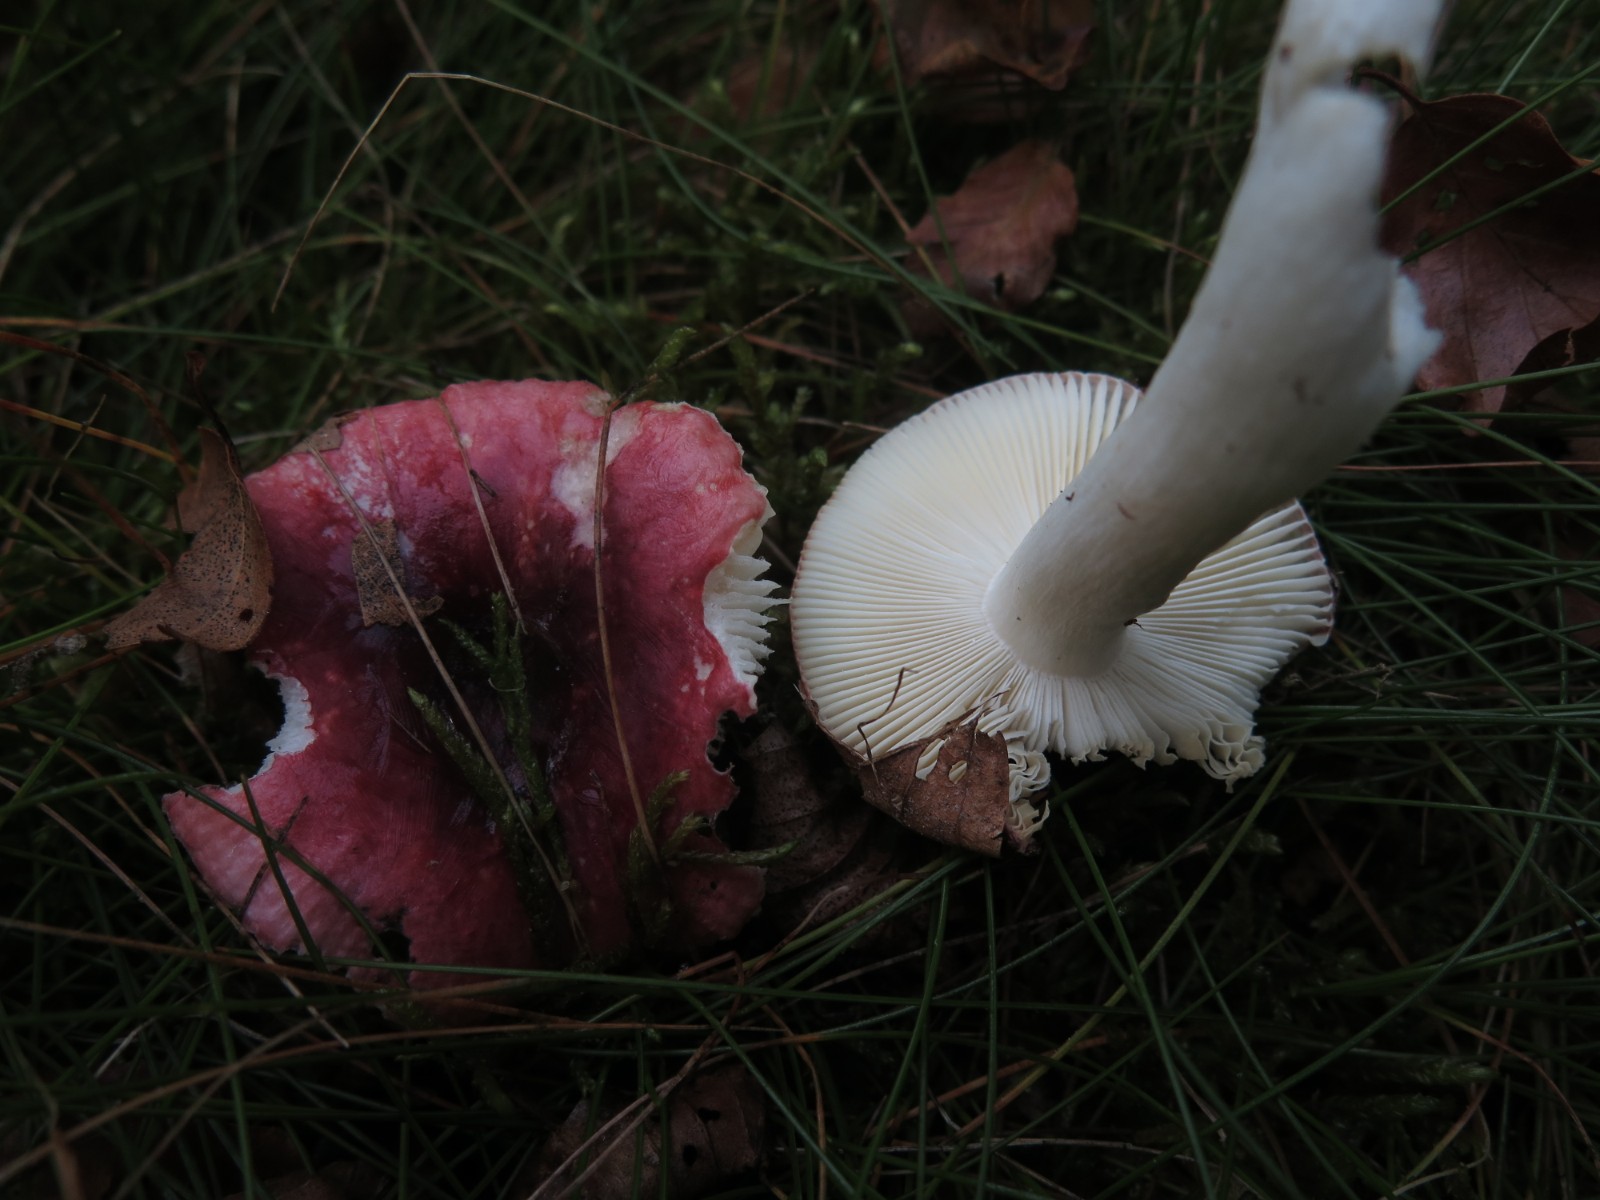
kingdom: Fungi
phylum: Basidiomycota
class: Agaricomycetes
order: Russulales
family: Russulaceae
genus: Russula
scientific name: Russula atrorubens
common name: sortrød skørhat
